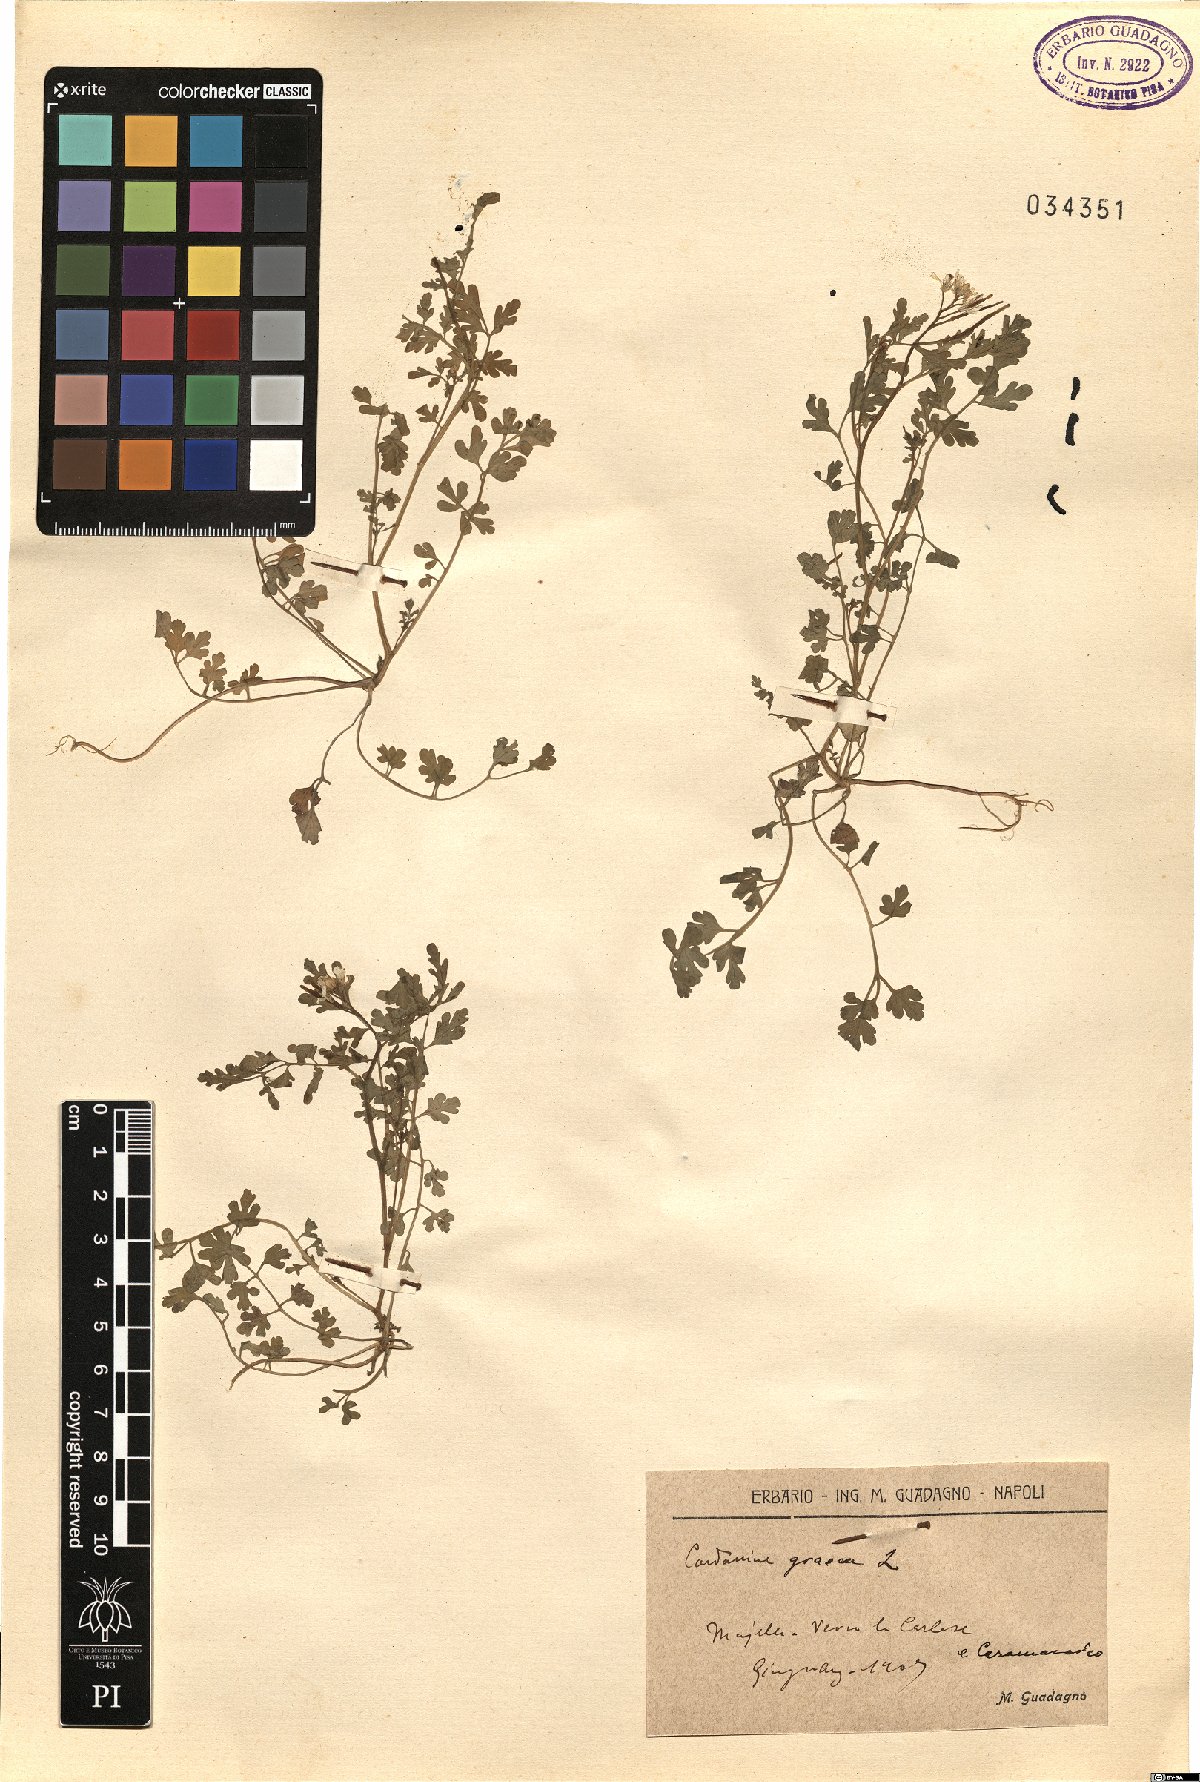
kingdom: Plantae
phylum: Tracheophyta
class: Magnoliopsida
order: Brassicales
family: Brassicaceae
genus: Cardamine
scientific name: Cardamine graeca
